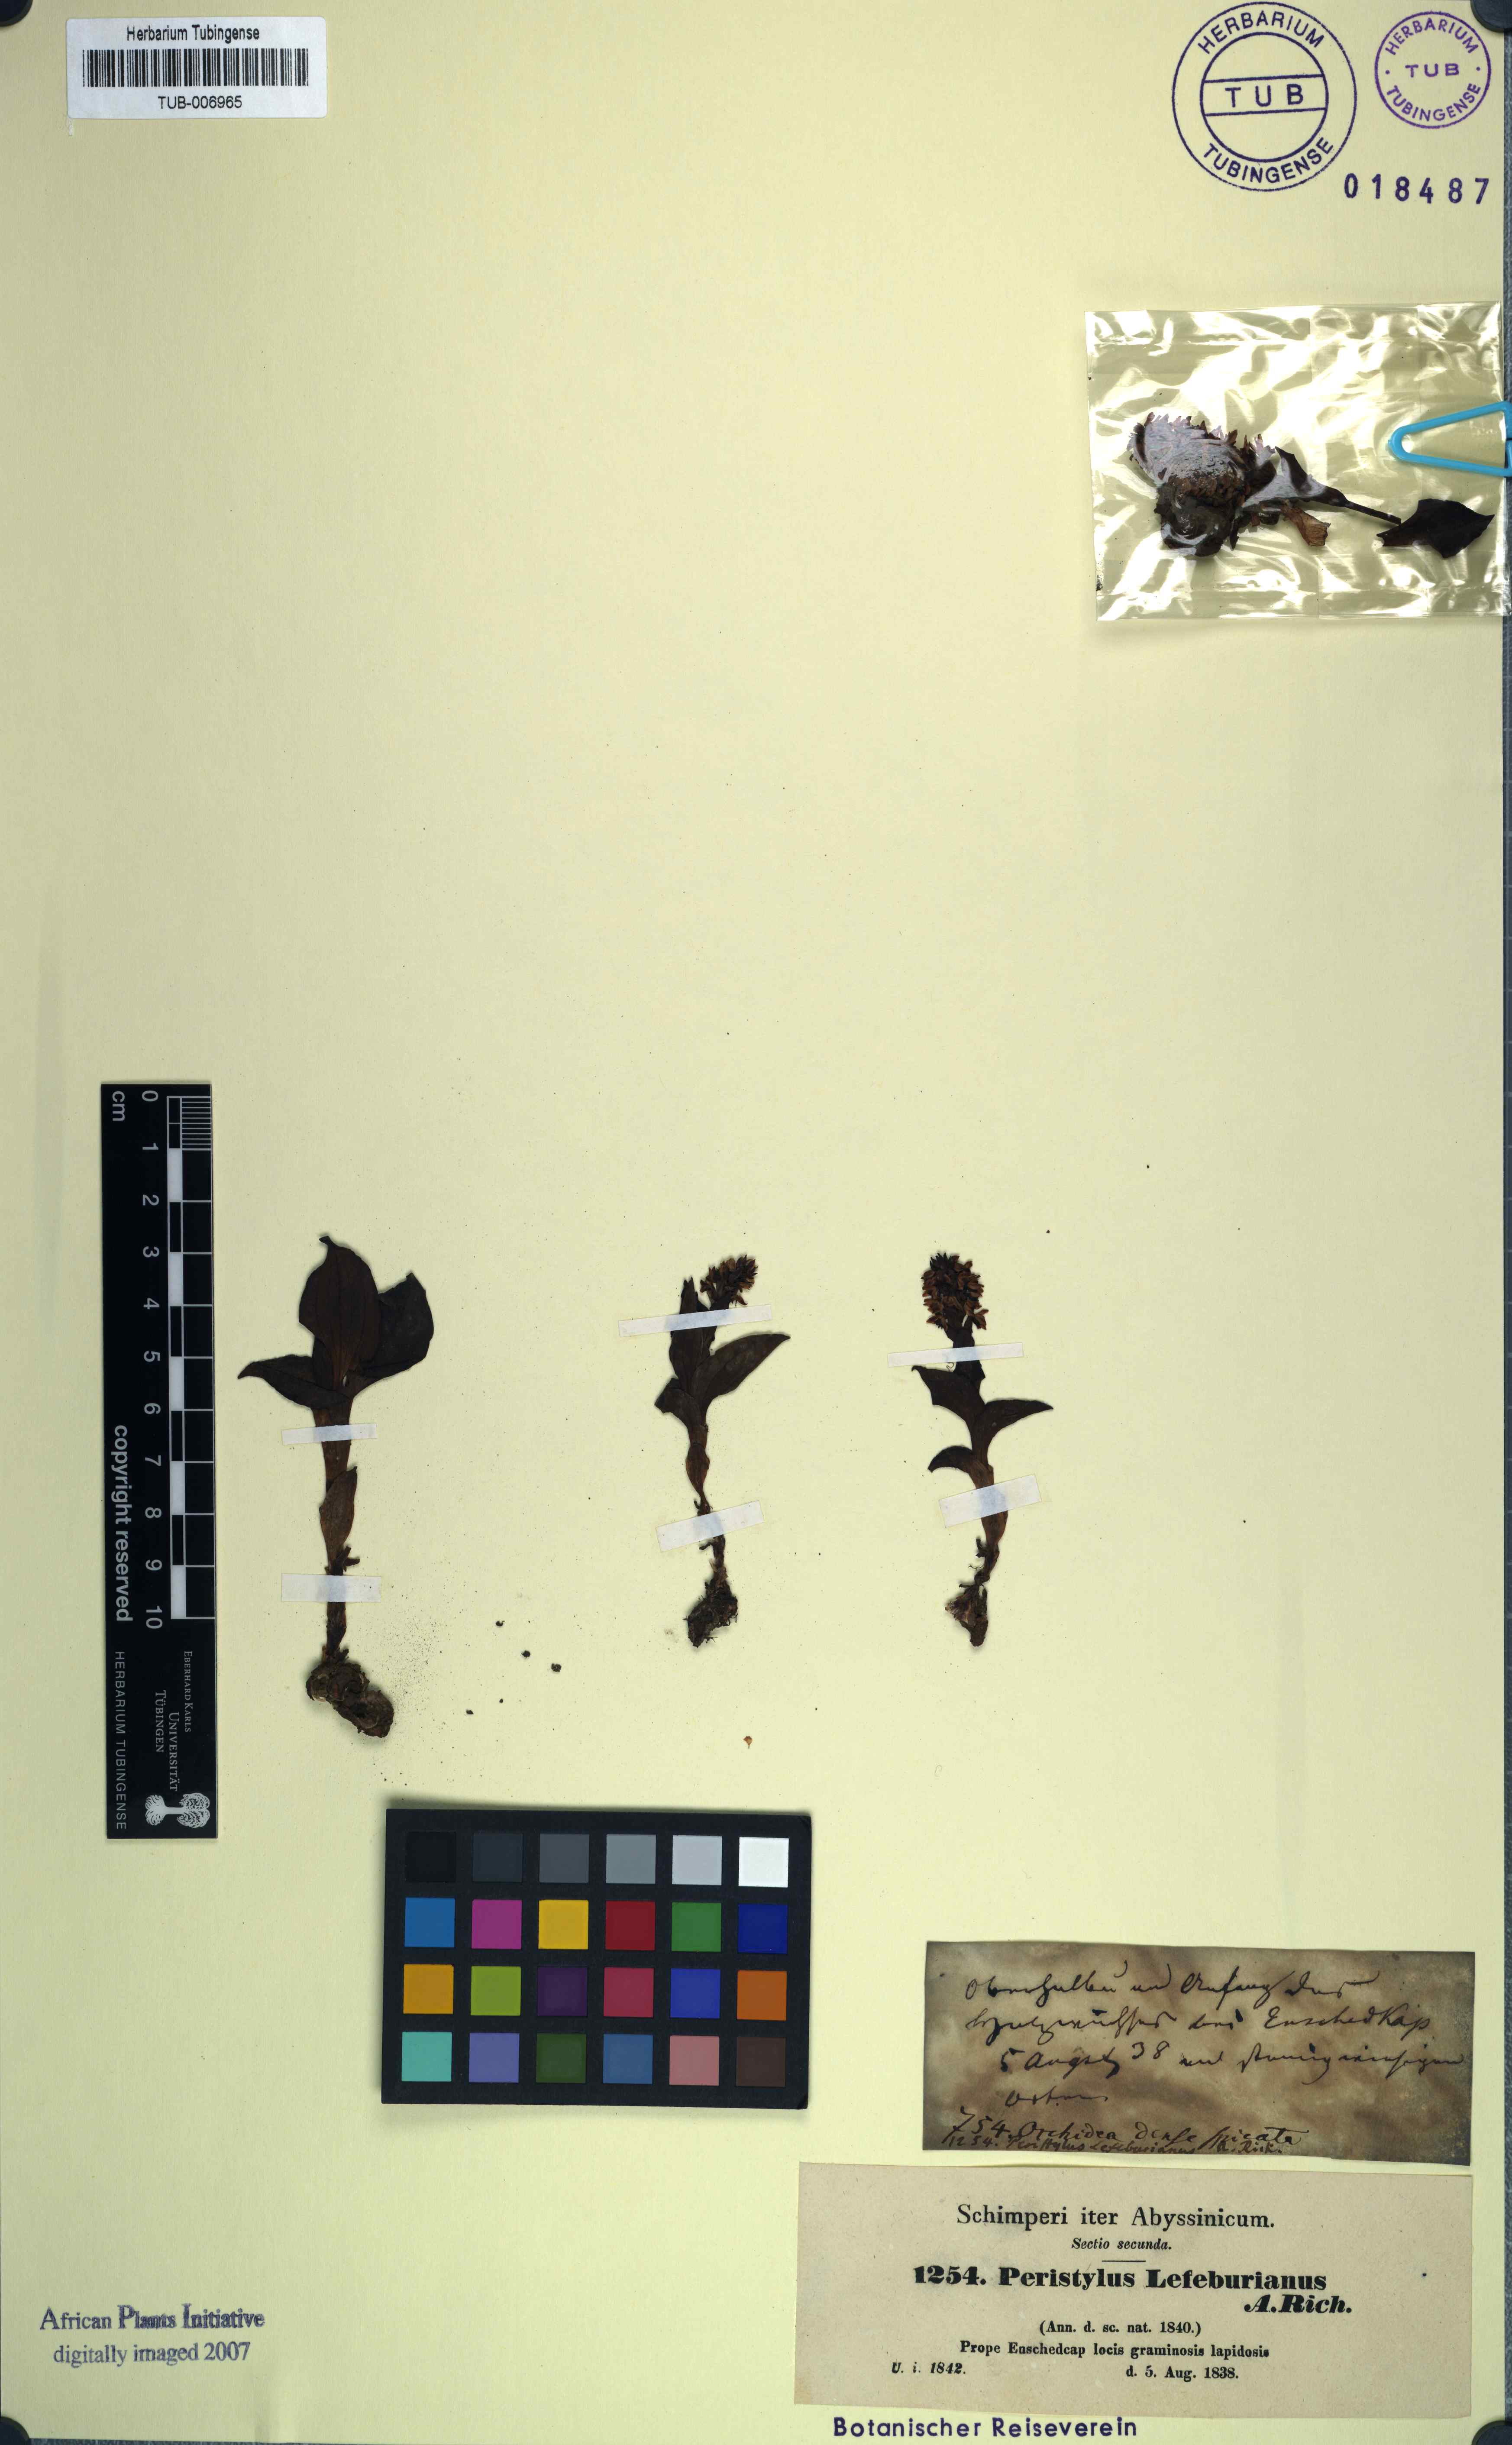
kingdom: Plantae
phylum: Tracheophyta
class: Liliopsida
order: Asparagales
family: Orchidaceae
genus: Herminium
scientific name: Herminium lefebreanum
